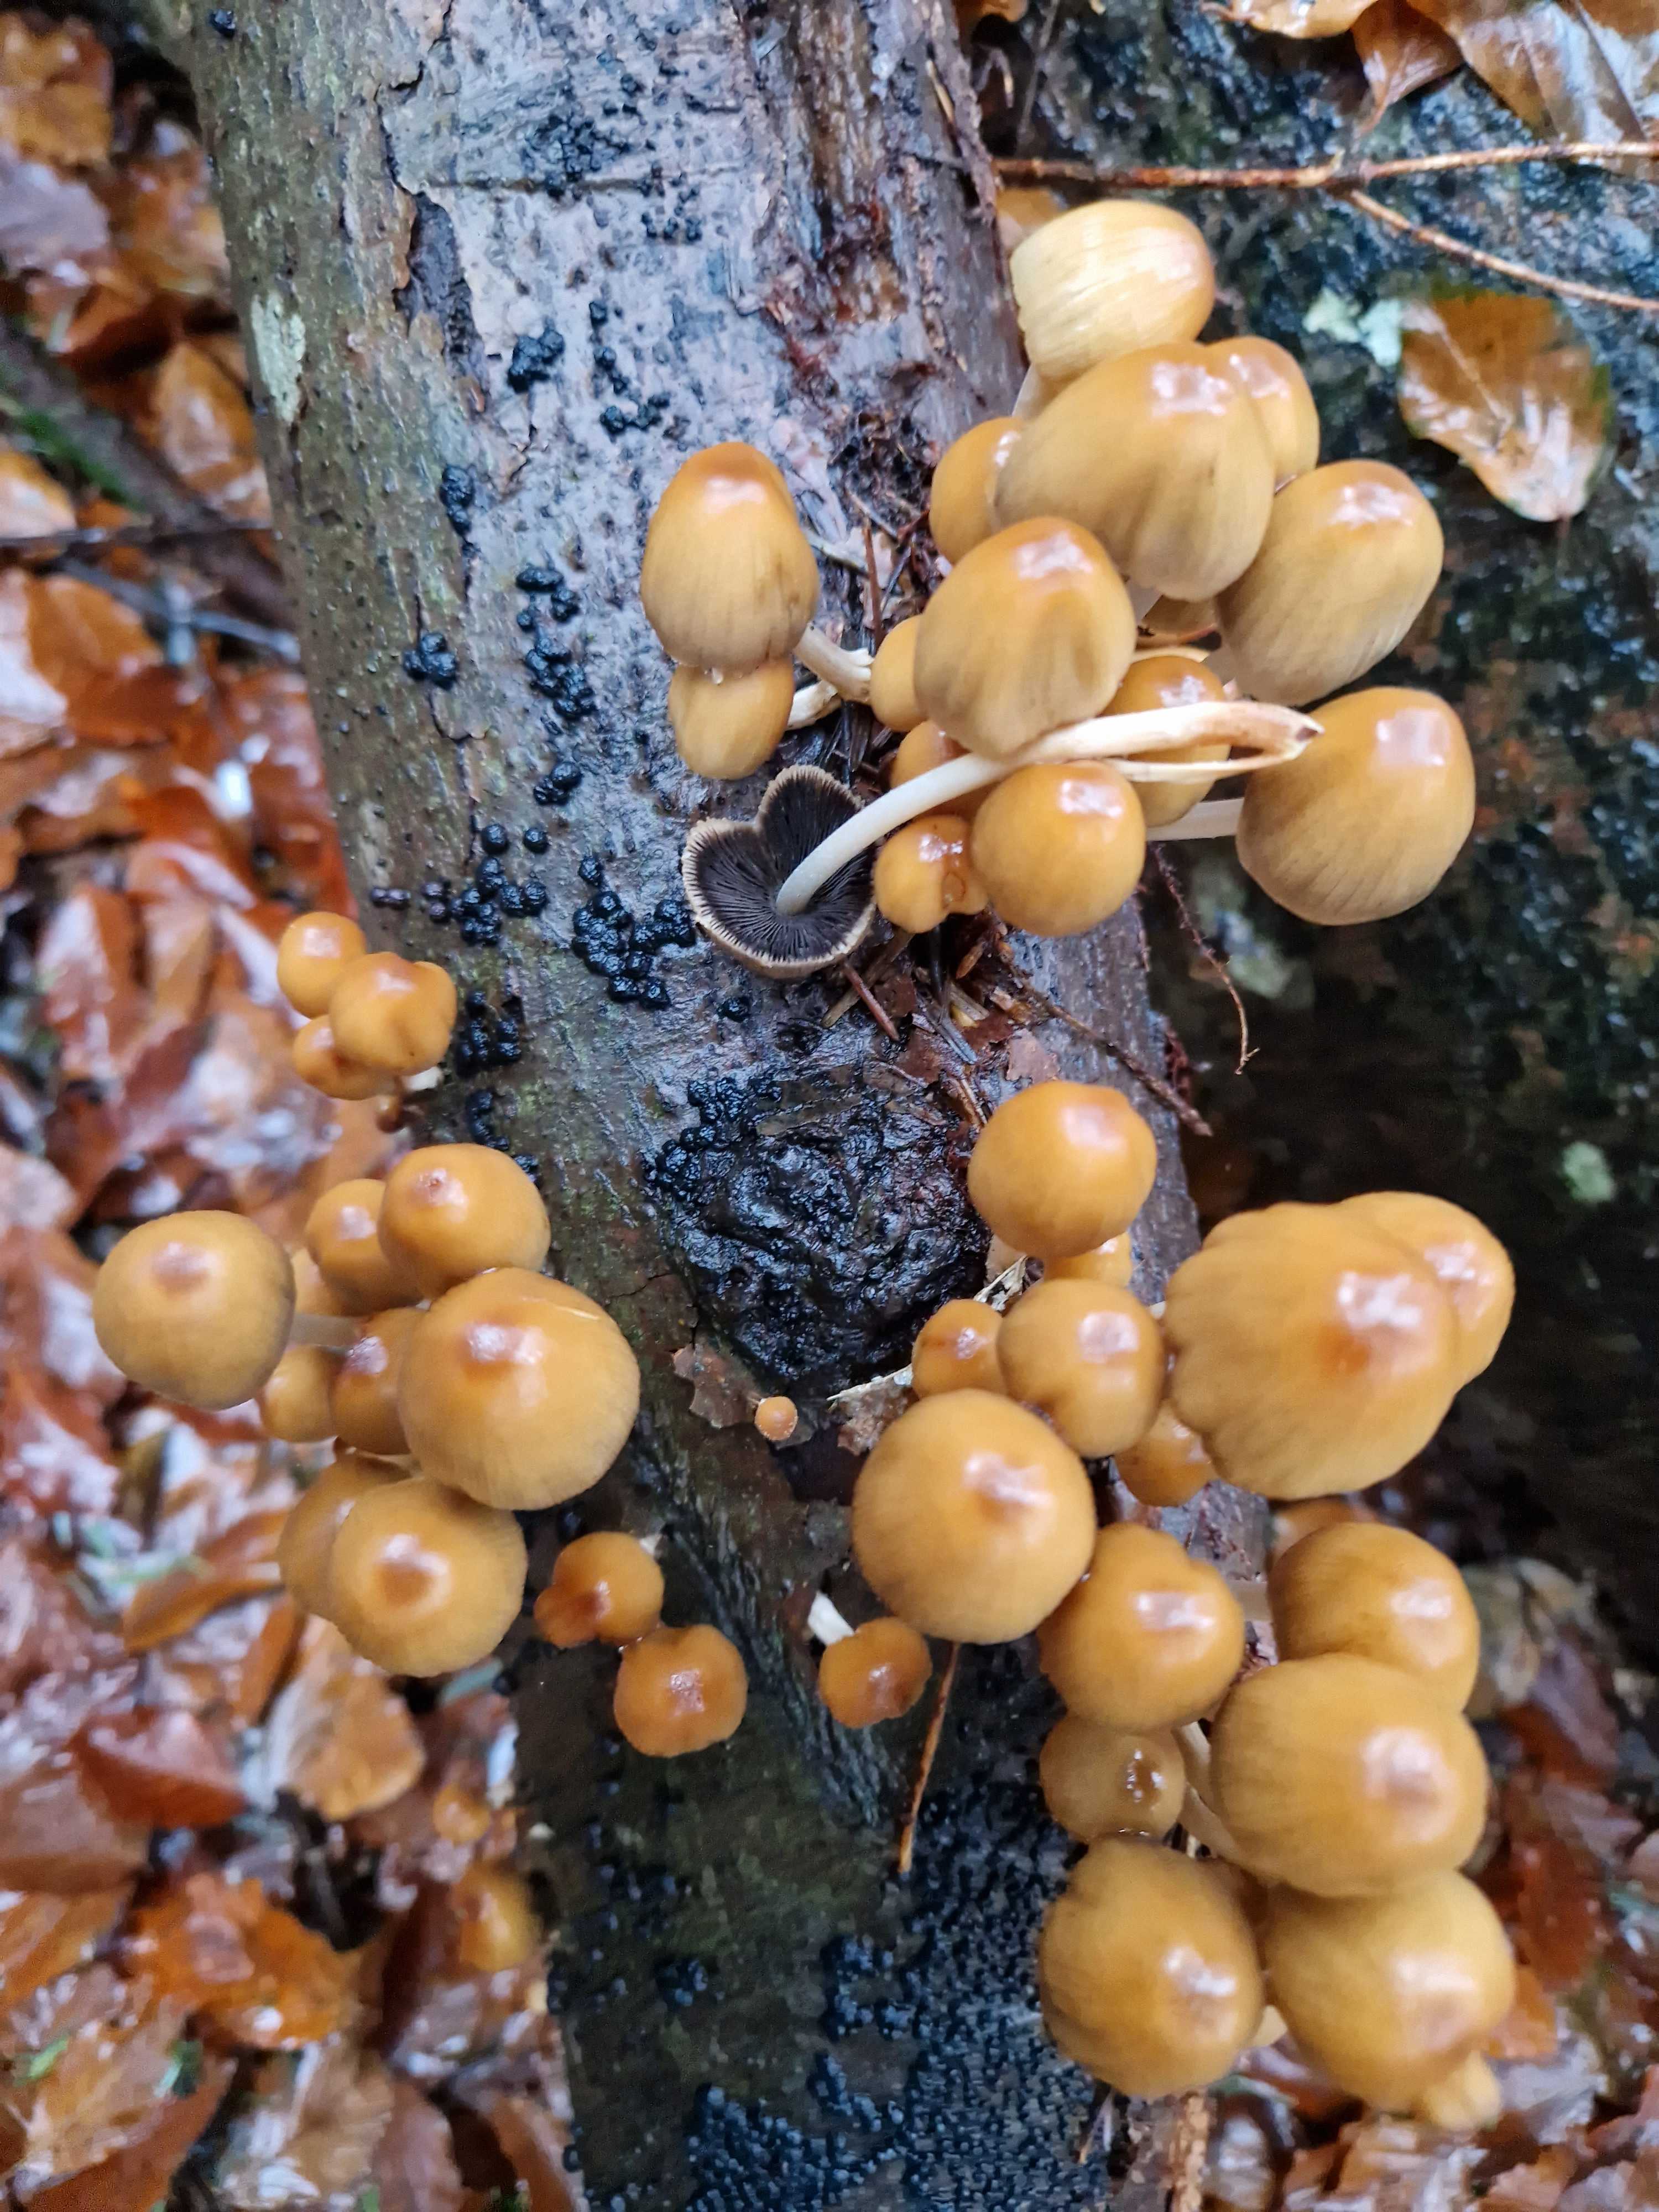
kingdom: Fungi
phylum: Basidiomycota
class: Agaricomycetes
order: Agaricales
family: Psathyrellaceae
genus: Coprinellus
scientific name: Coprinellus micaceus
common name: glimmer-blækhat
